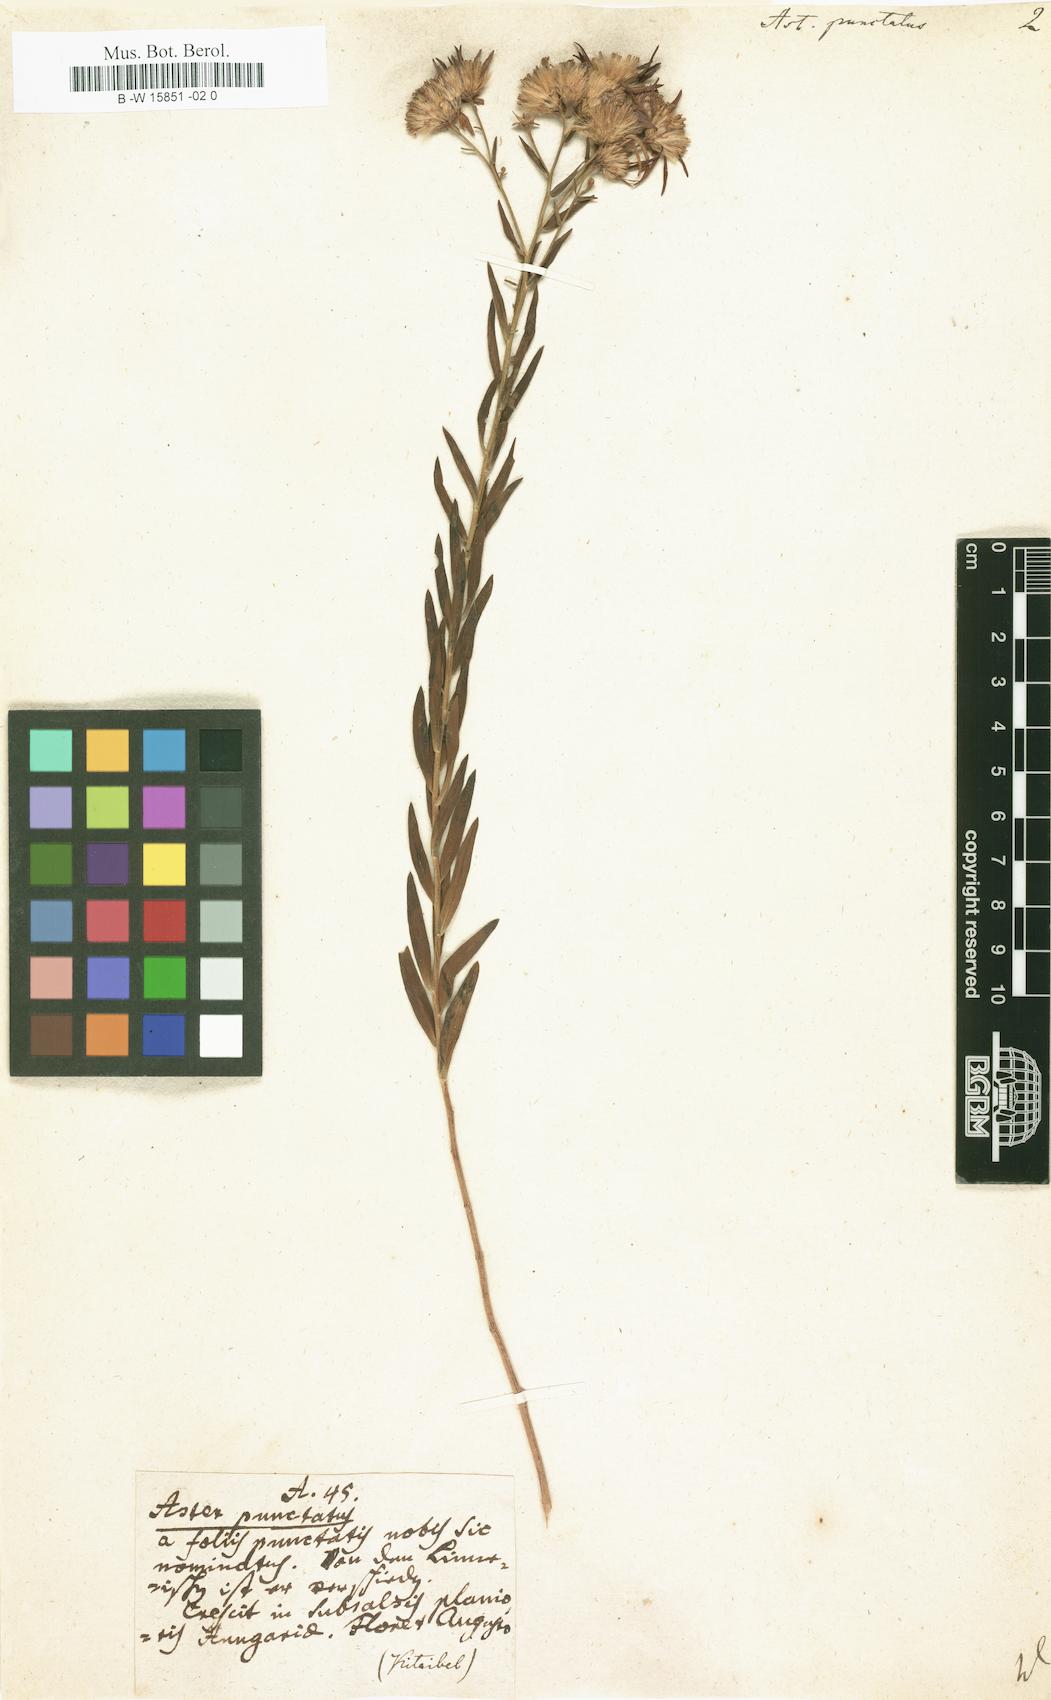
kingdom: Plantae
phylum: Tracheophyta
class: Magnoliopsida
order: Asterales
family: Asteraceae
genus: Aster
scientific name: Aster punctatus
